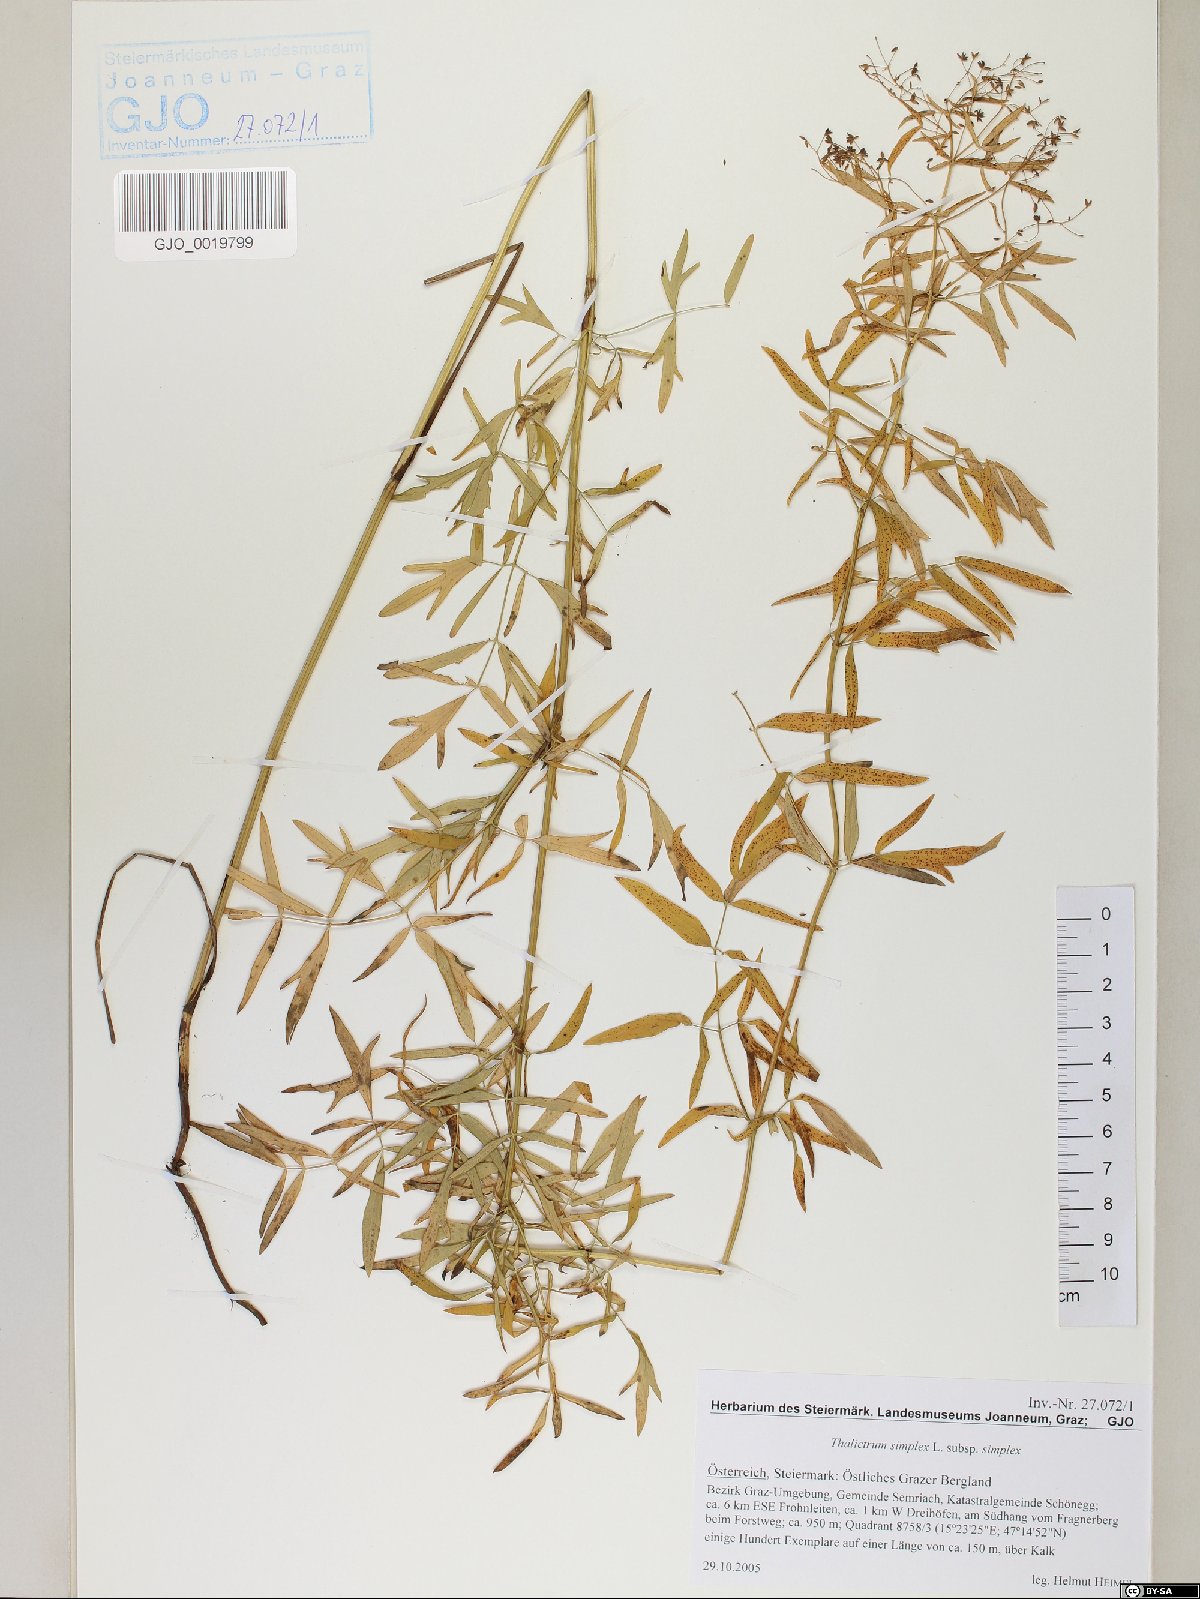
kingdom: Plantae
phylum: Tracheophyta
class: Magnoliopsida
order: Ranunculales
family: Ranunculaceae
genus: Thalictrum
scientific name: Thalictrum simplex
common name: Small meadow-rue
